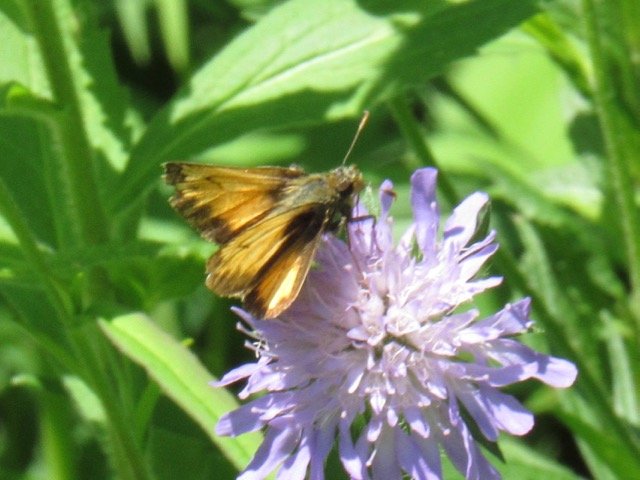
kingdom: Animalia
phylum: Arthropoda
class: Insecta
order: Lepidoptera
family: Hesperiidae
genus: Lon
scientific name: Lon hobomok
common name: Hobomok Skipper
